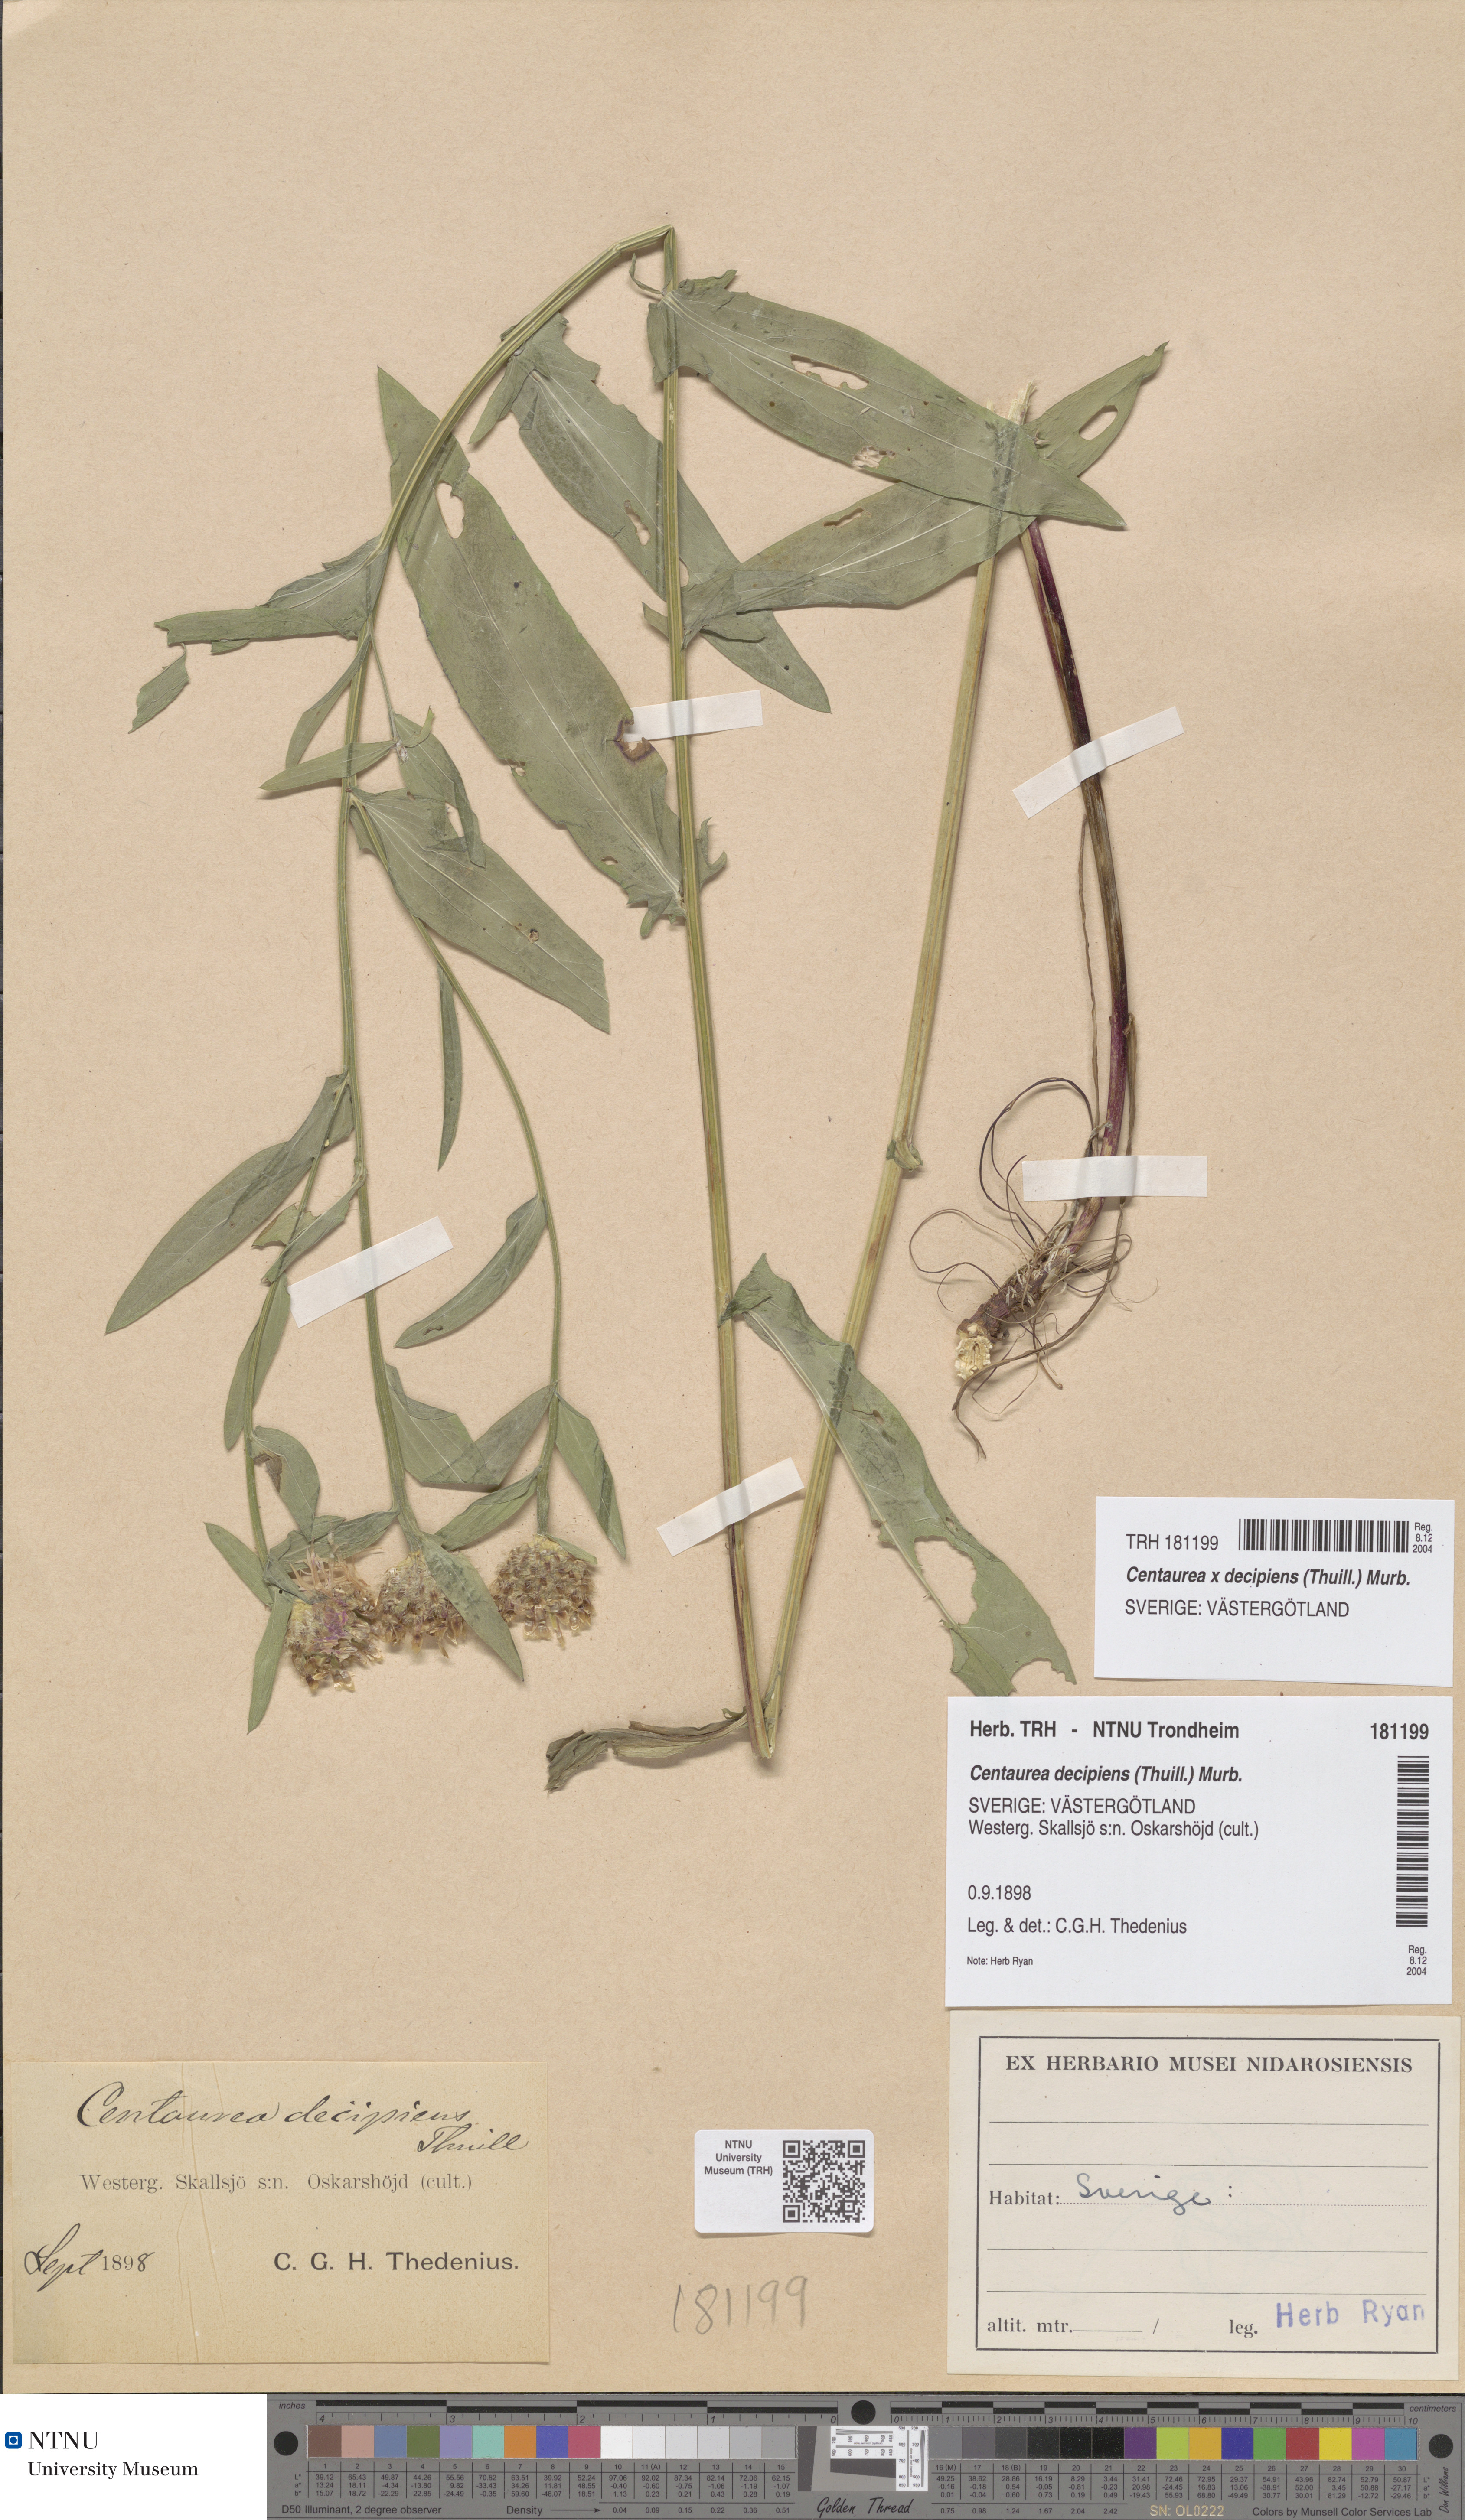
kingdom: Plantae
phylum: Tracheophyta
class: Magnoliopsida
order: Asterales
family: Asteraceae
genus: Centaurea
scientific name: Centaurea decipiens
